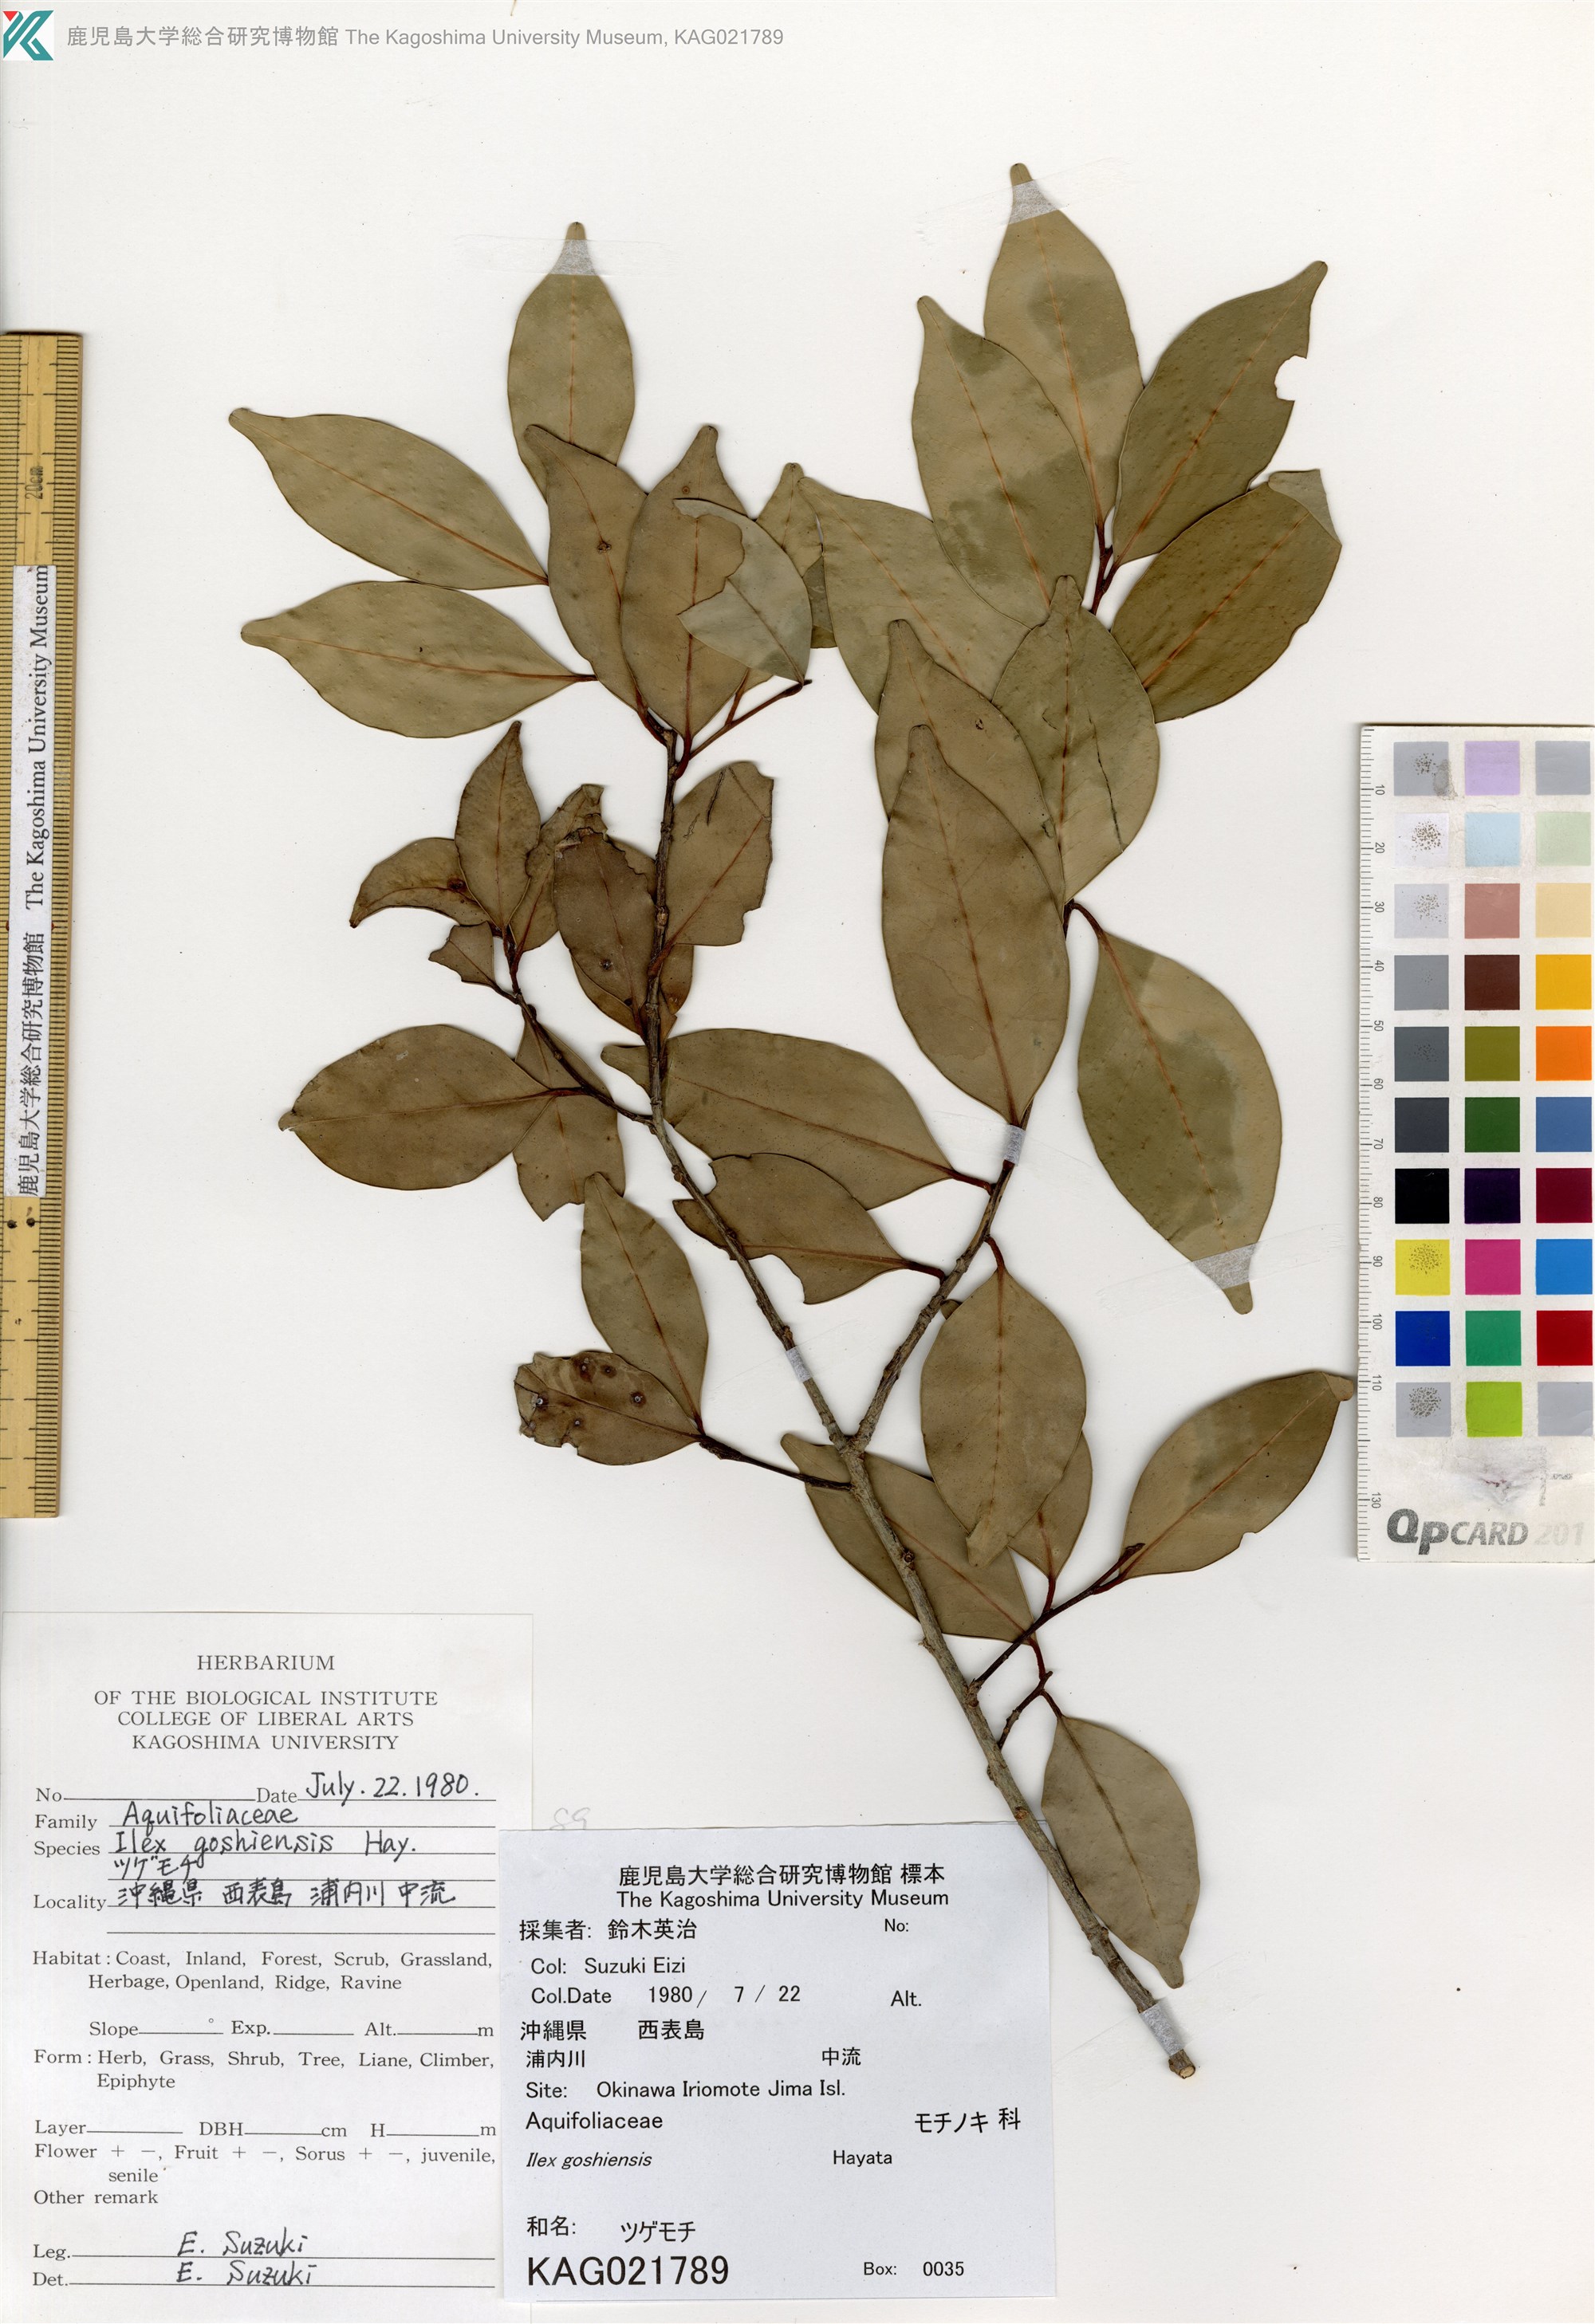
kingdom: Plantae
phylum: Tracheophyta
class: Magnoliopsida
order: Aquifoliales
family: Aquifoliaceae
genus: Ilex
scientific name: Ilex goshiensis
